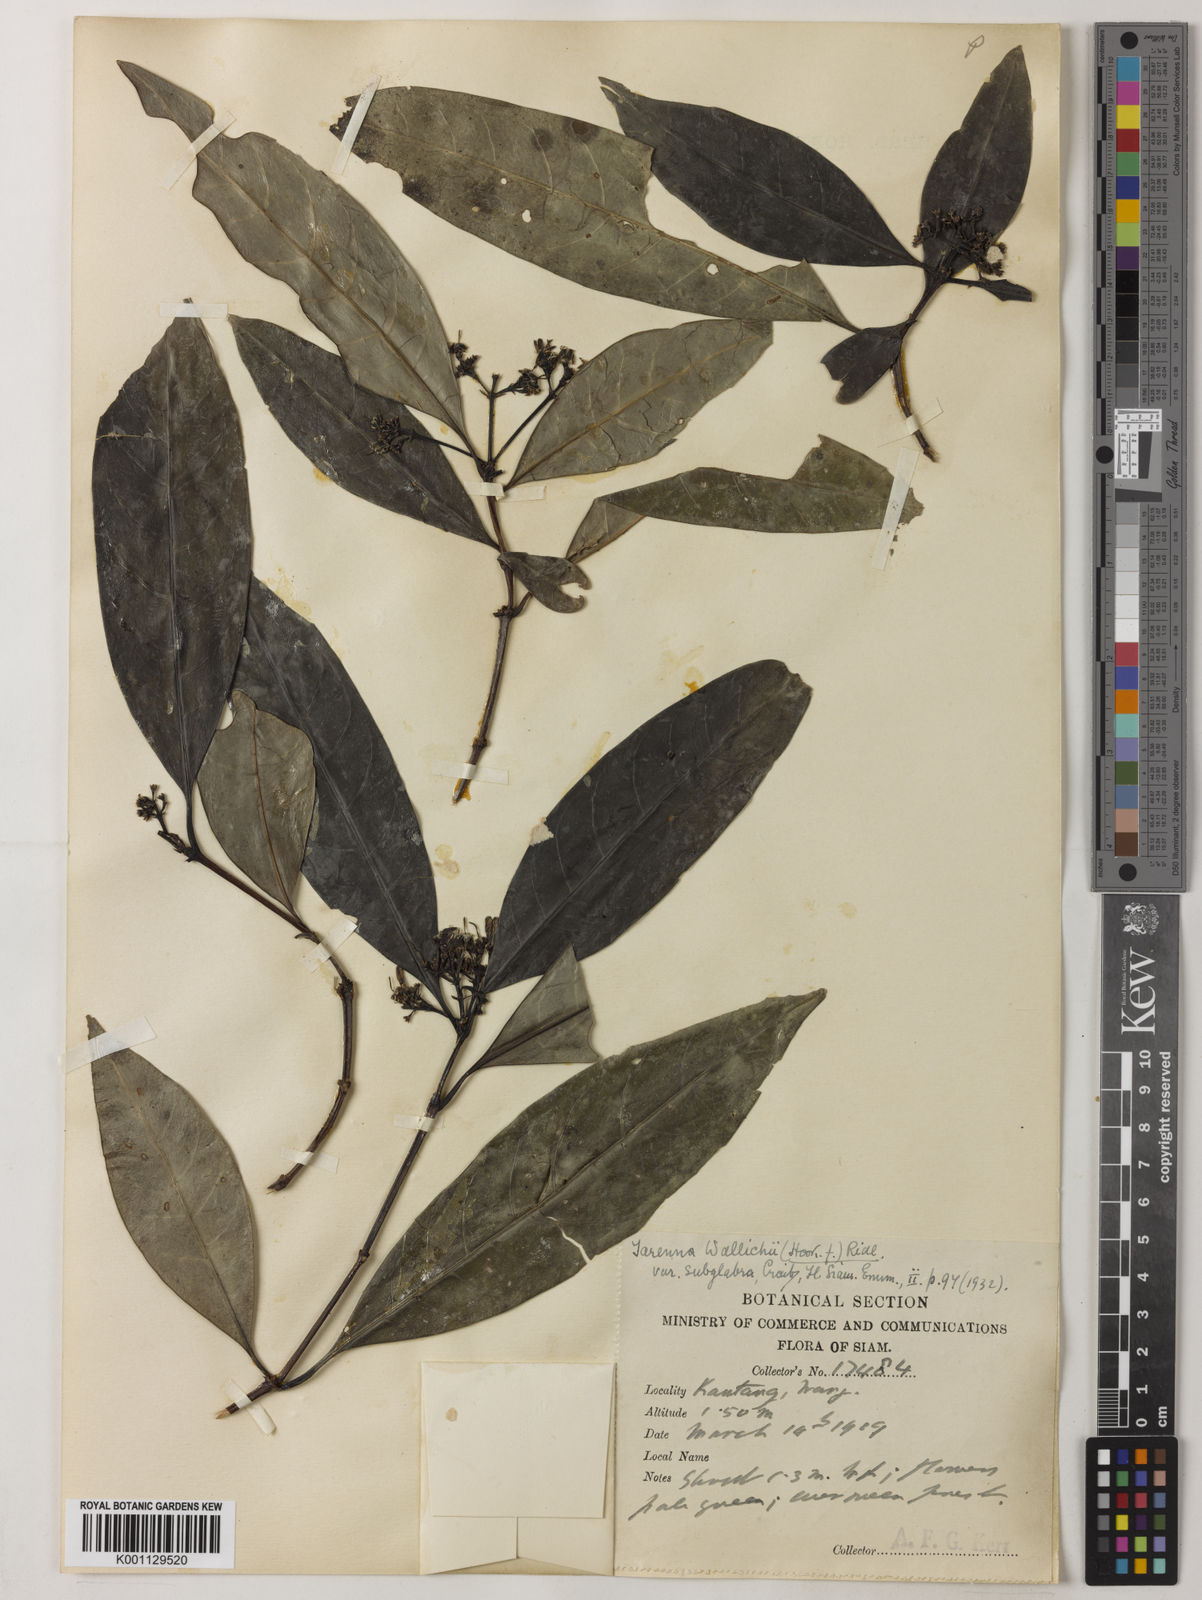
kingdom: Plantae
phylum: Tracheophyta
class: Magnoliopsida
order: Gentianales
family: Rubiaceae
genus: Tarenna
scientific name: Tarenna wallichii
